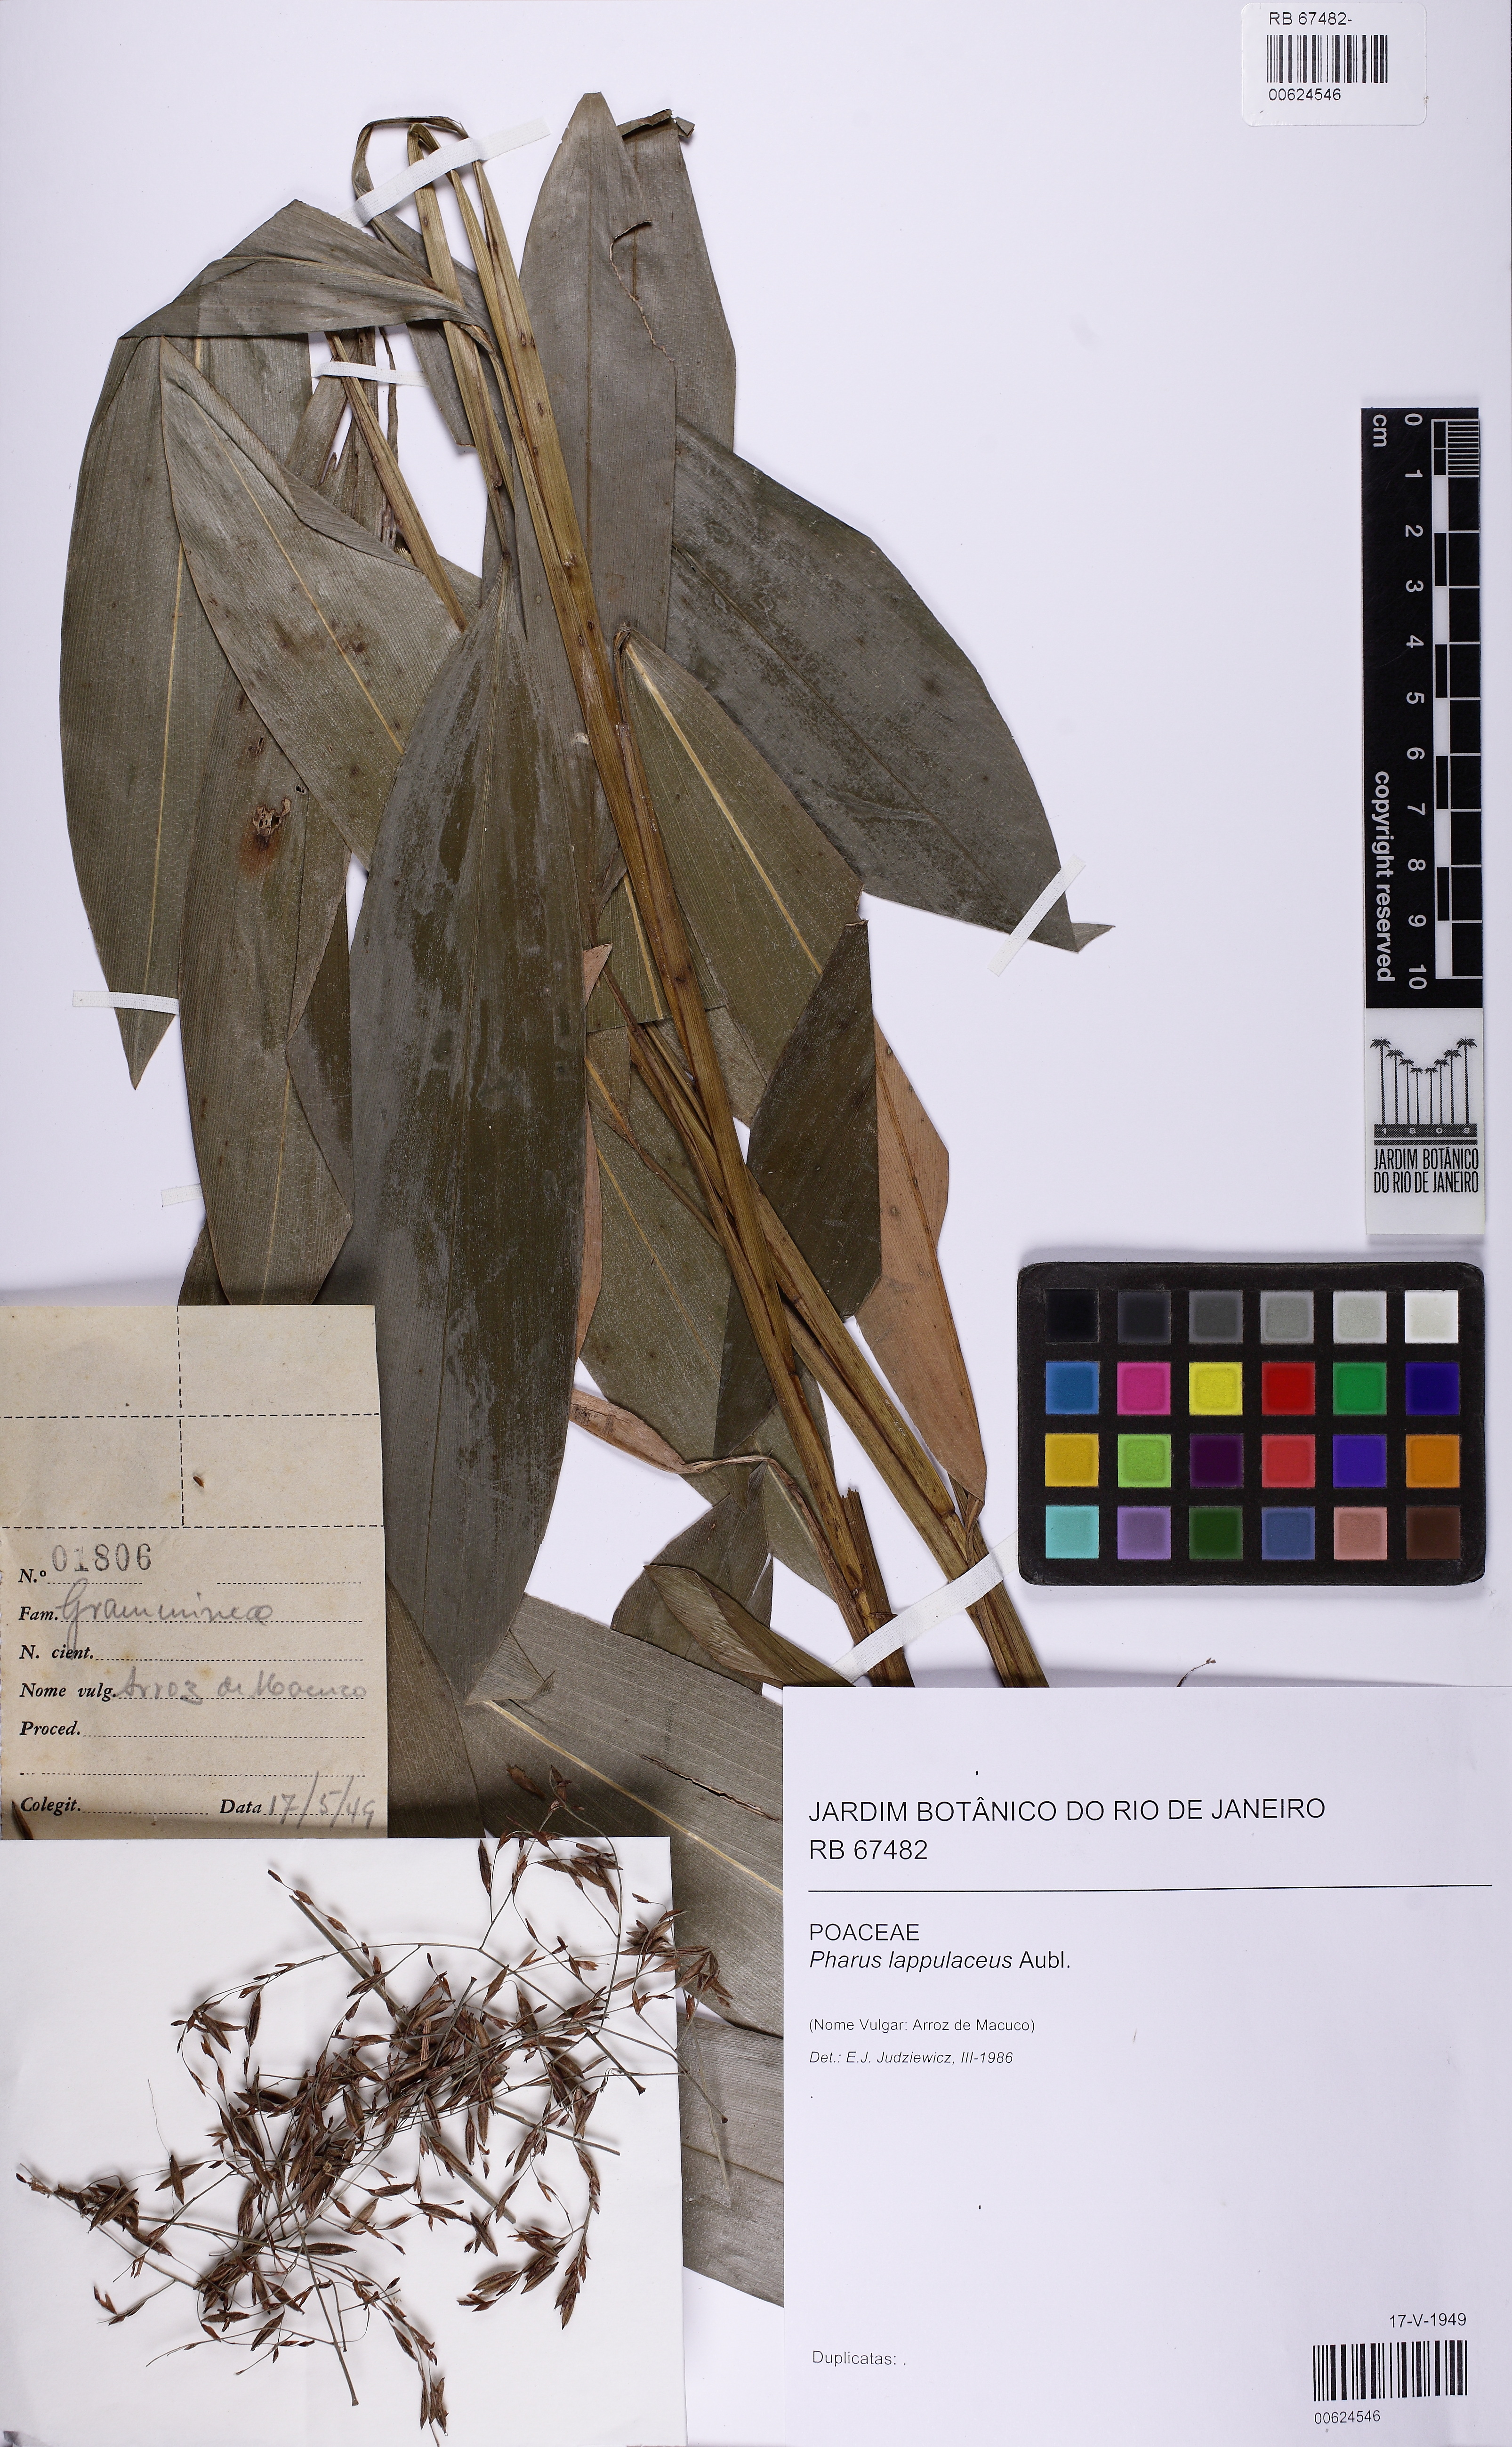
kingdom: Plantae
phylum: Tracheophyta
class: Liliopsida
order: Poales
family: Poaceae
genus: Pharus
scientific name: Pharus lappulaceus
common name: Creeping leafstalk grass
